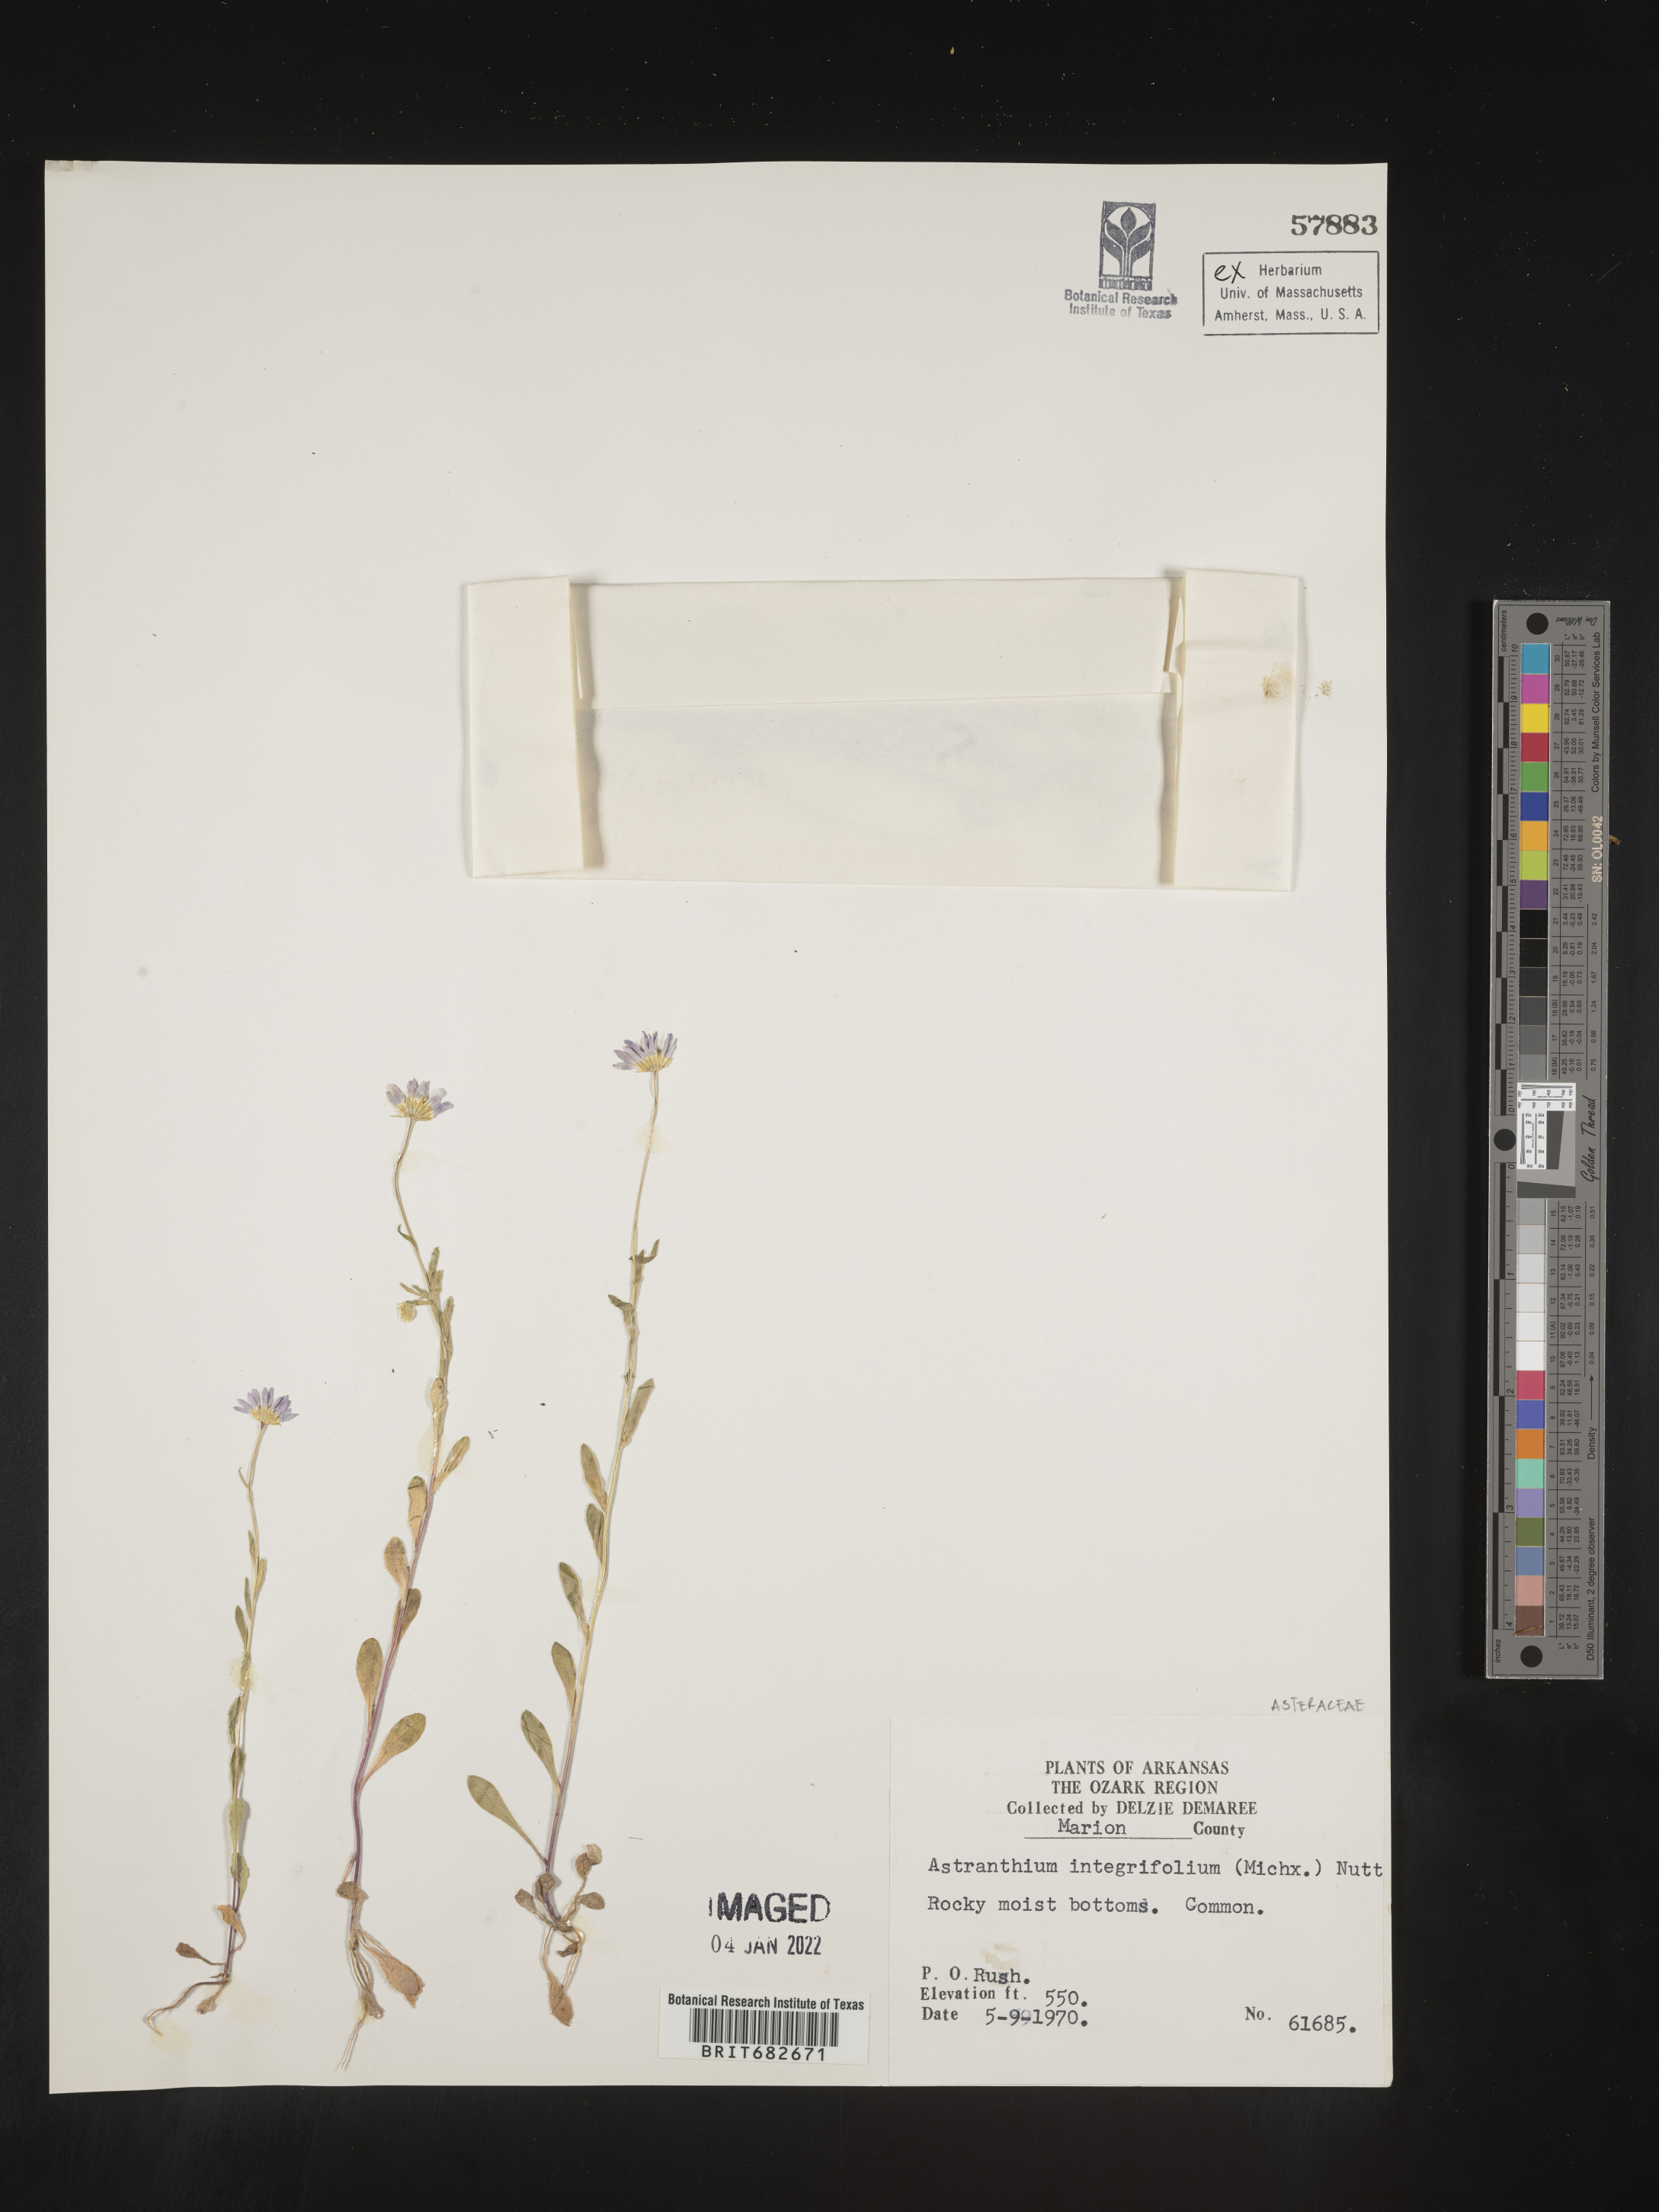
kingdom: Plantae
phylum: Tracheophyta
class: Magnoliopsida
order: Asterales
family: Asteraceae
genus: Astranthium
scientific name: Astranthium integrifolium
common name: Western daisy
